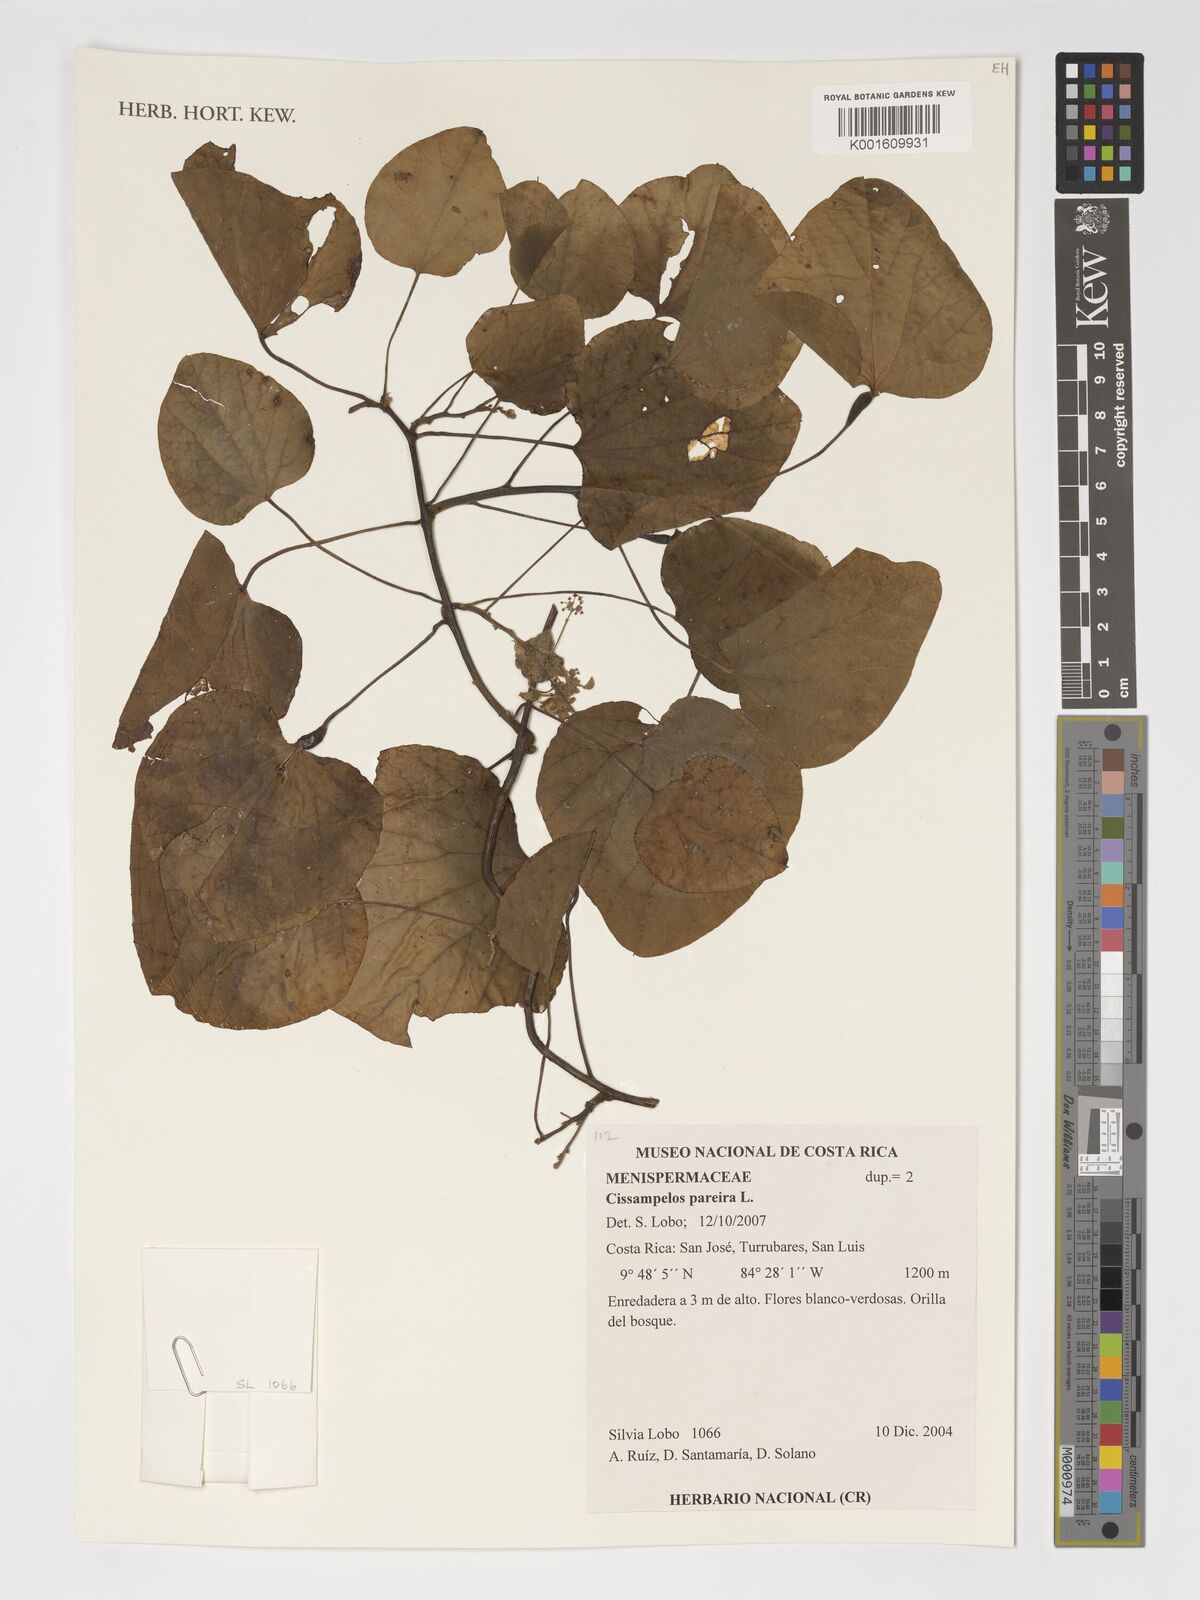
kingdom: Plantae
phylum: Tracheophyta
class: Magnoliopsida
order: Ranunculales
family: Menispermaceae
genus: Cissampelos
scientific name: Cissampelos pareira
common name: Velvetleaf
